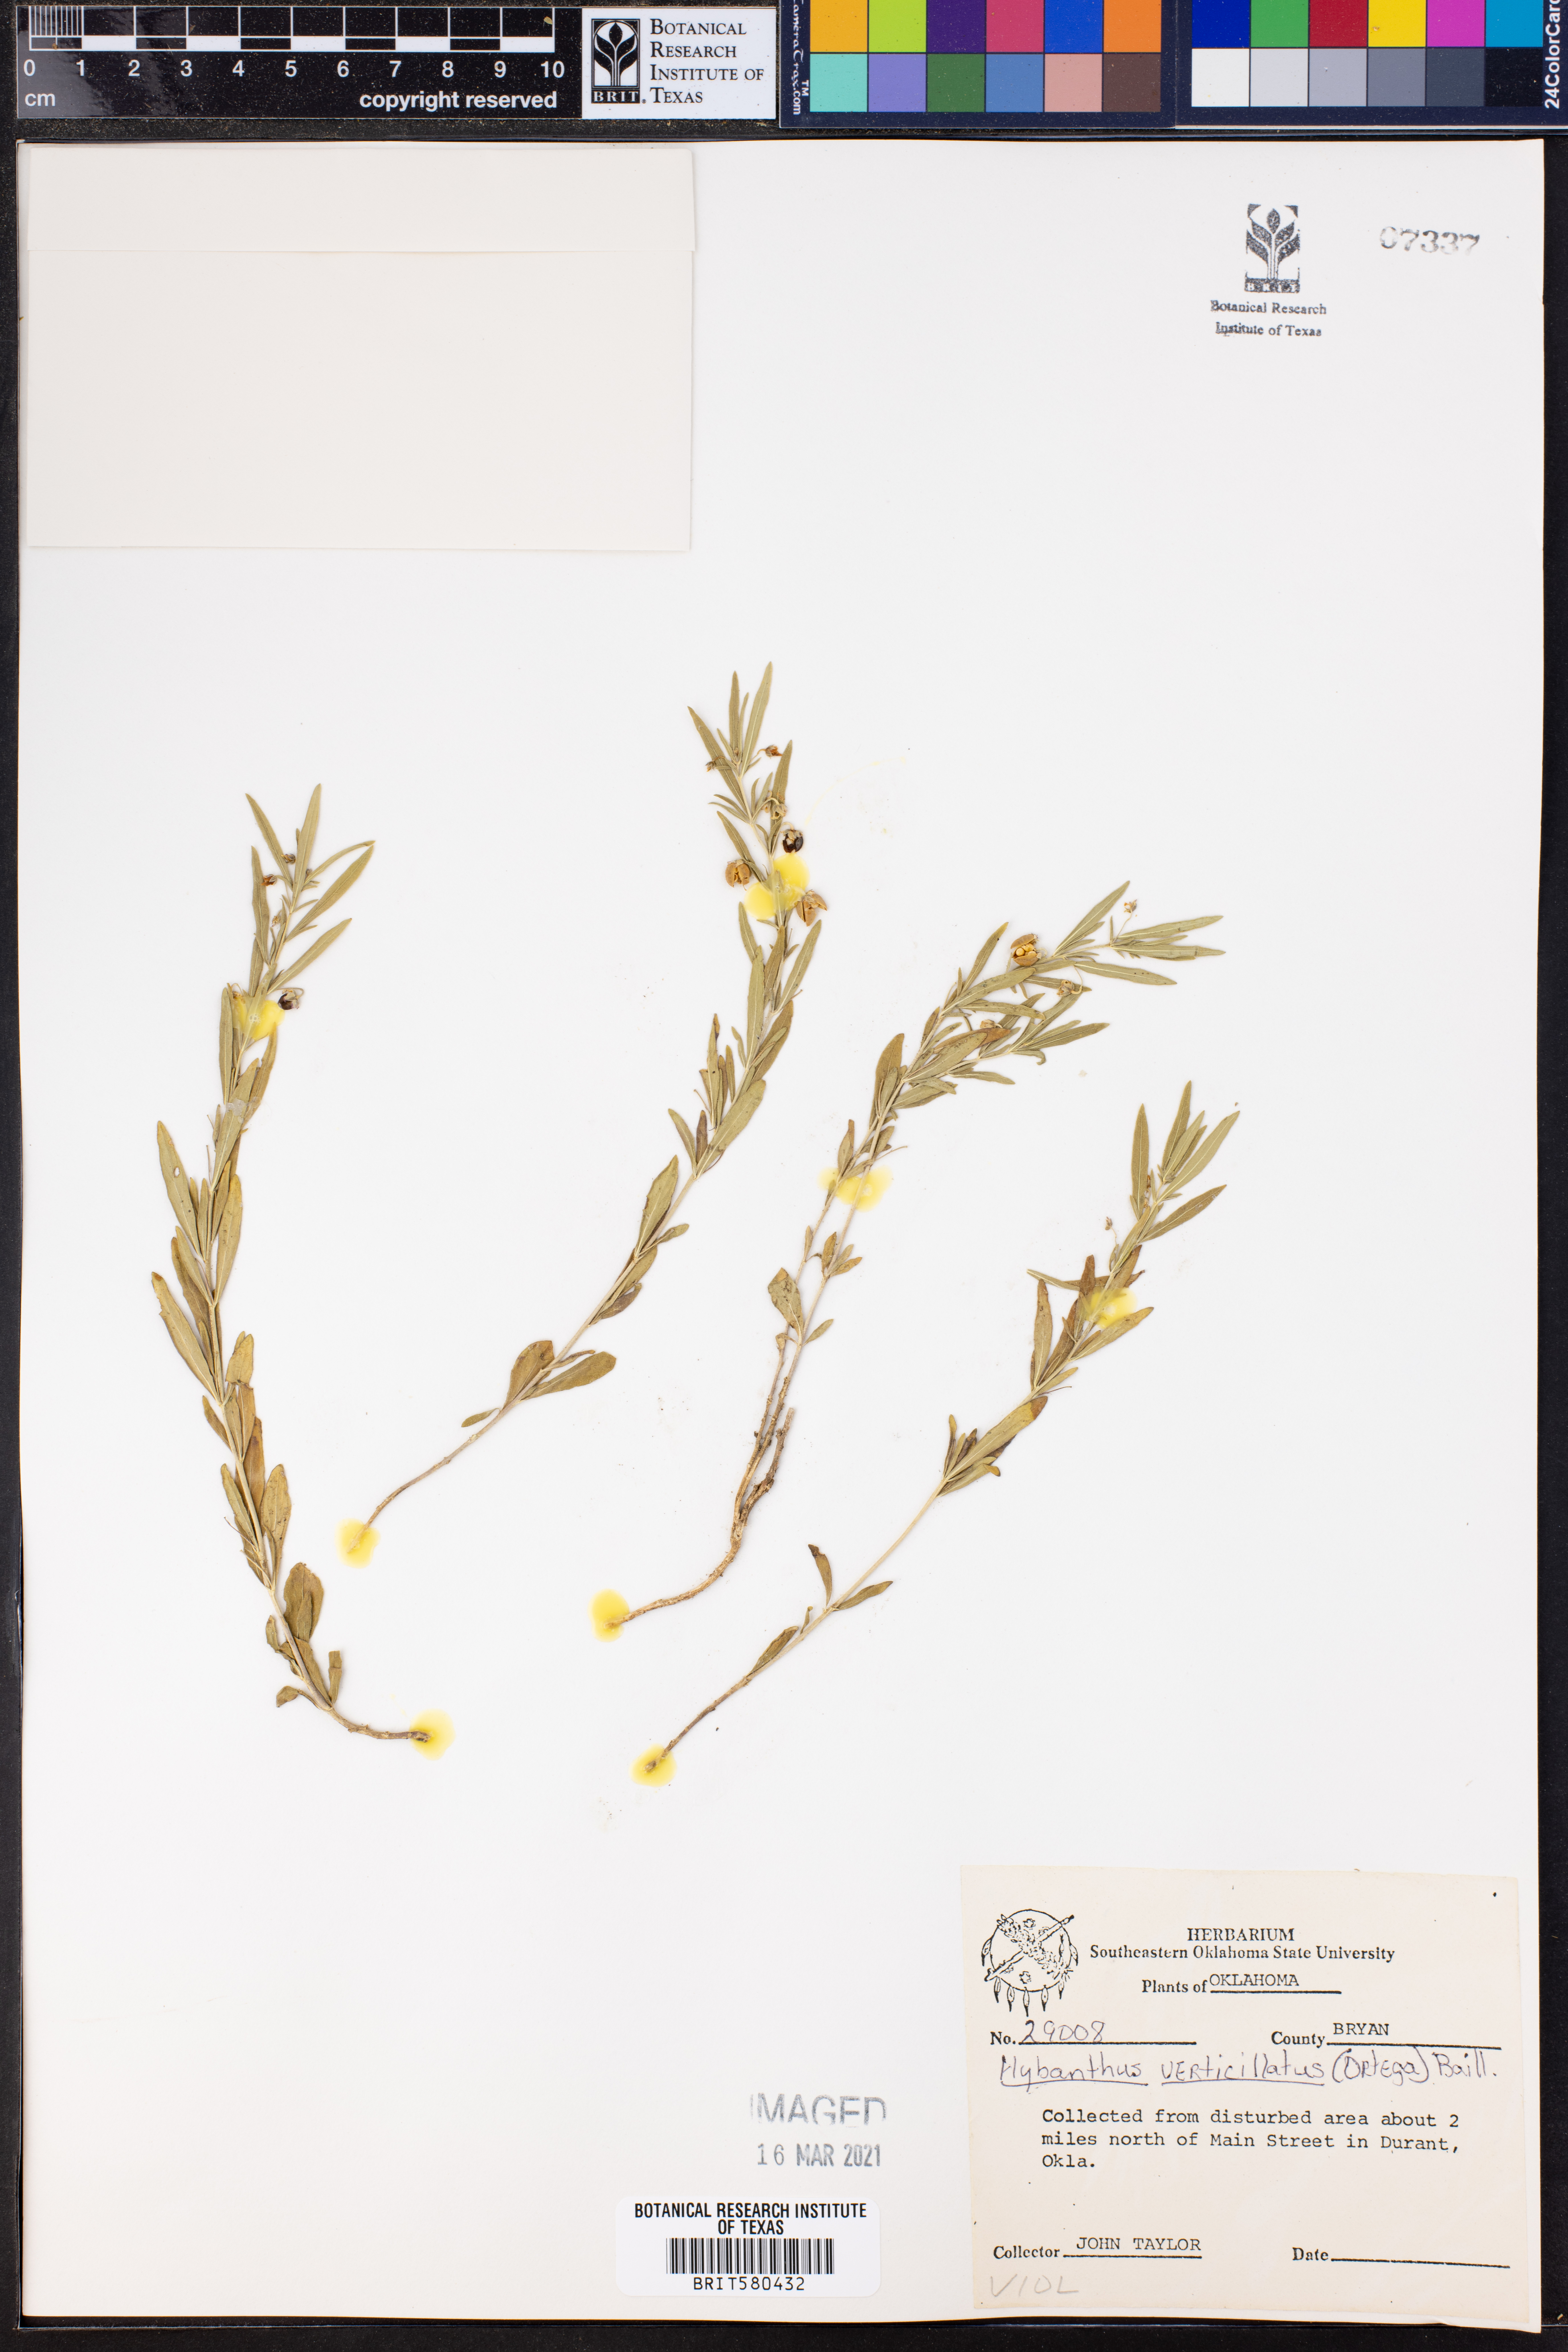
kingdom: Plantae
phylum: Tracheophyta
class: Magnoliopsida
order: Malpighiales
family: Violaceae
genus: Pombalia
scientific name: Pombalia verticillata
